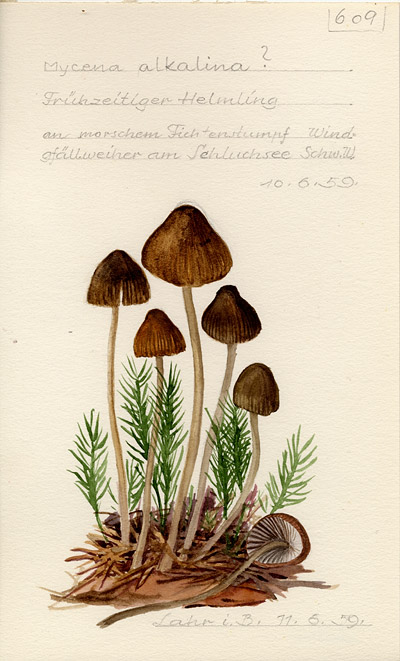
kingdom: Fungi
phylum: Basidiomycota
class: Agaricomycetes
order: Agaricales
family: Mycenaceae
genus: Mycena
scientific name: Mycena alcalina
